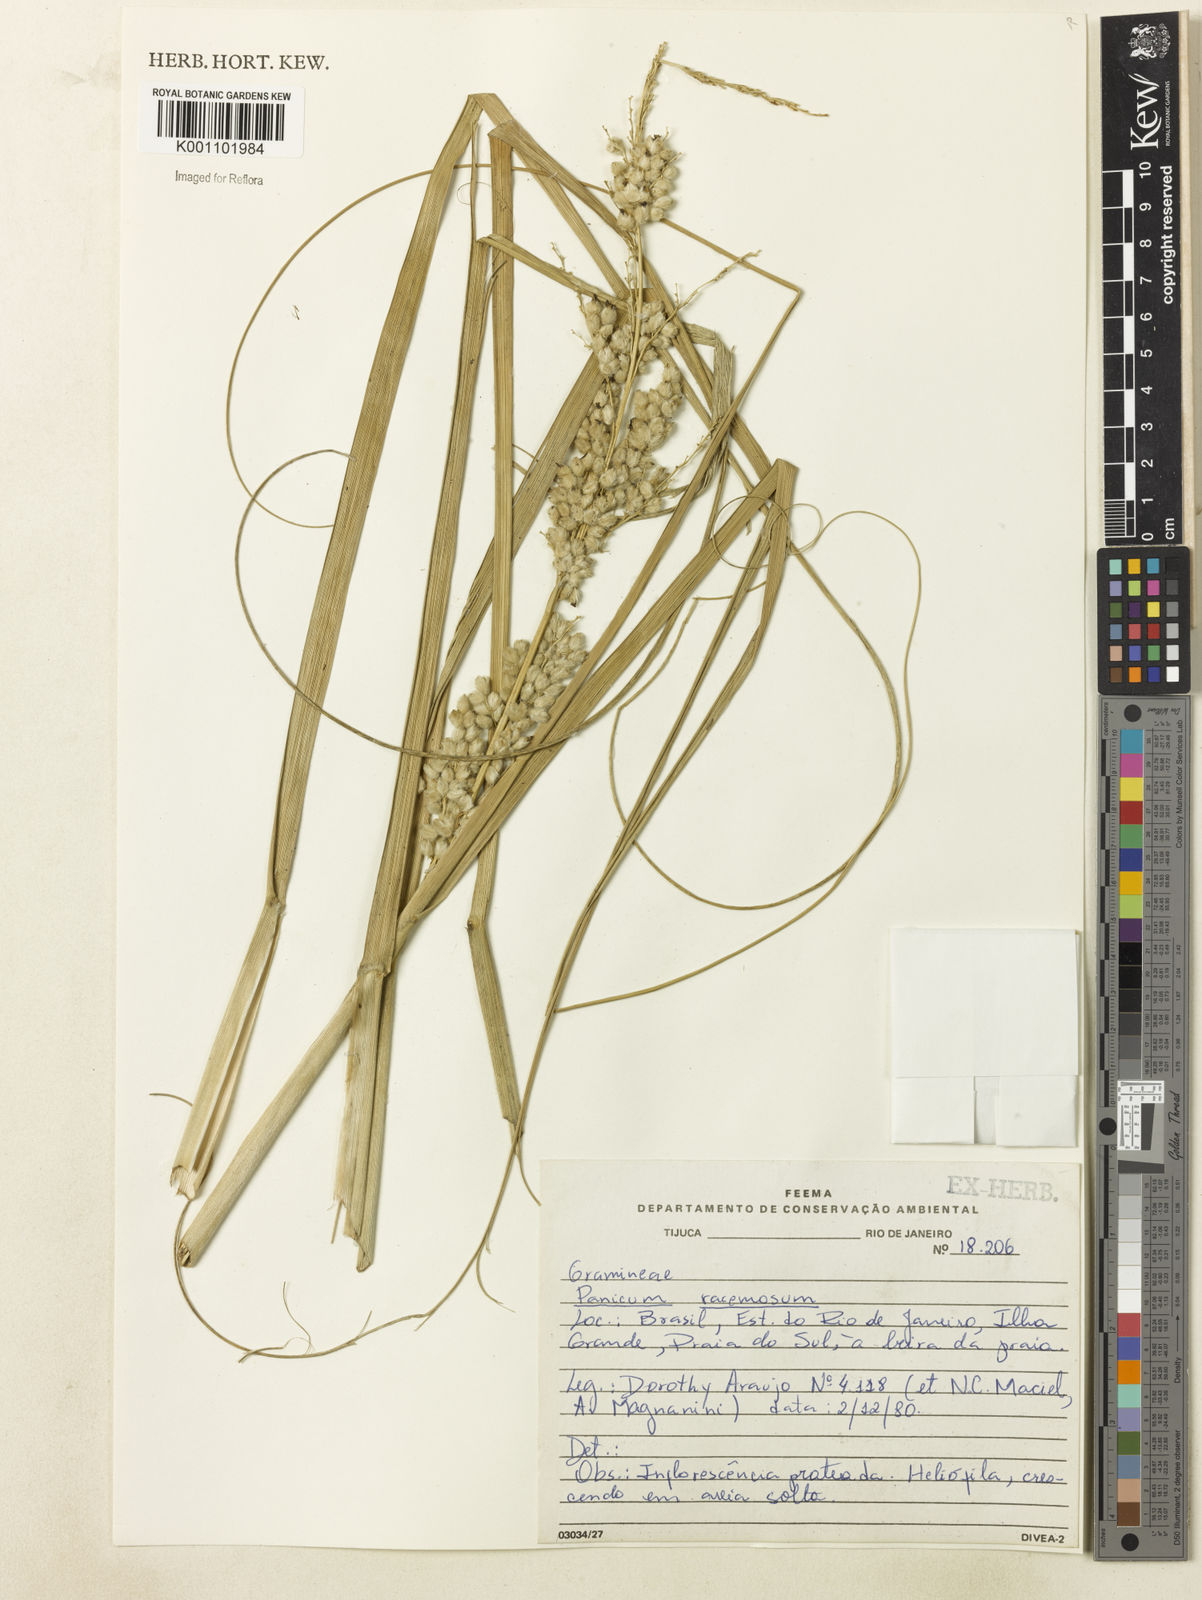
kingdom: Plantae
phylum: Tracheophyta
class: Liliopsida
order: Poales
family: Poaceae
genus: Panicum
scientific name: Panicum racemosum
